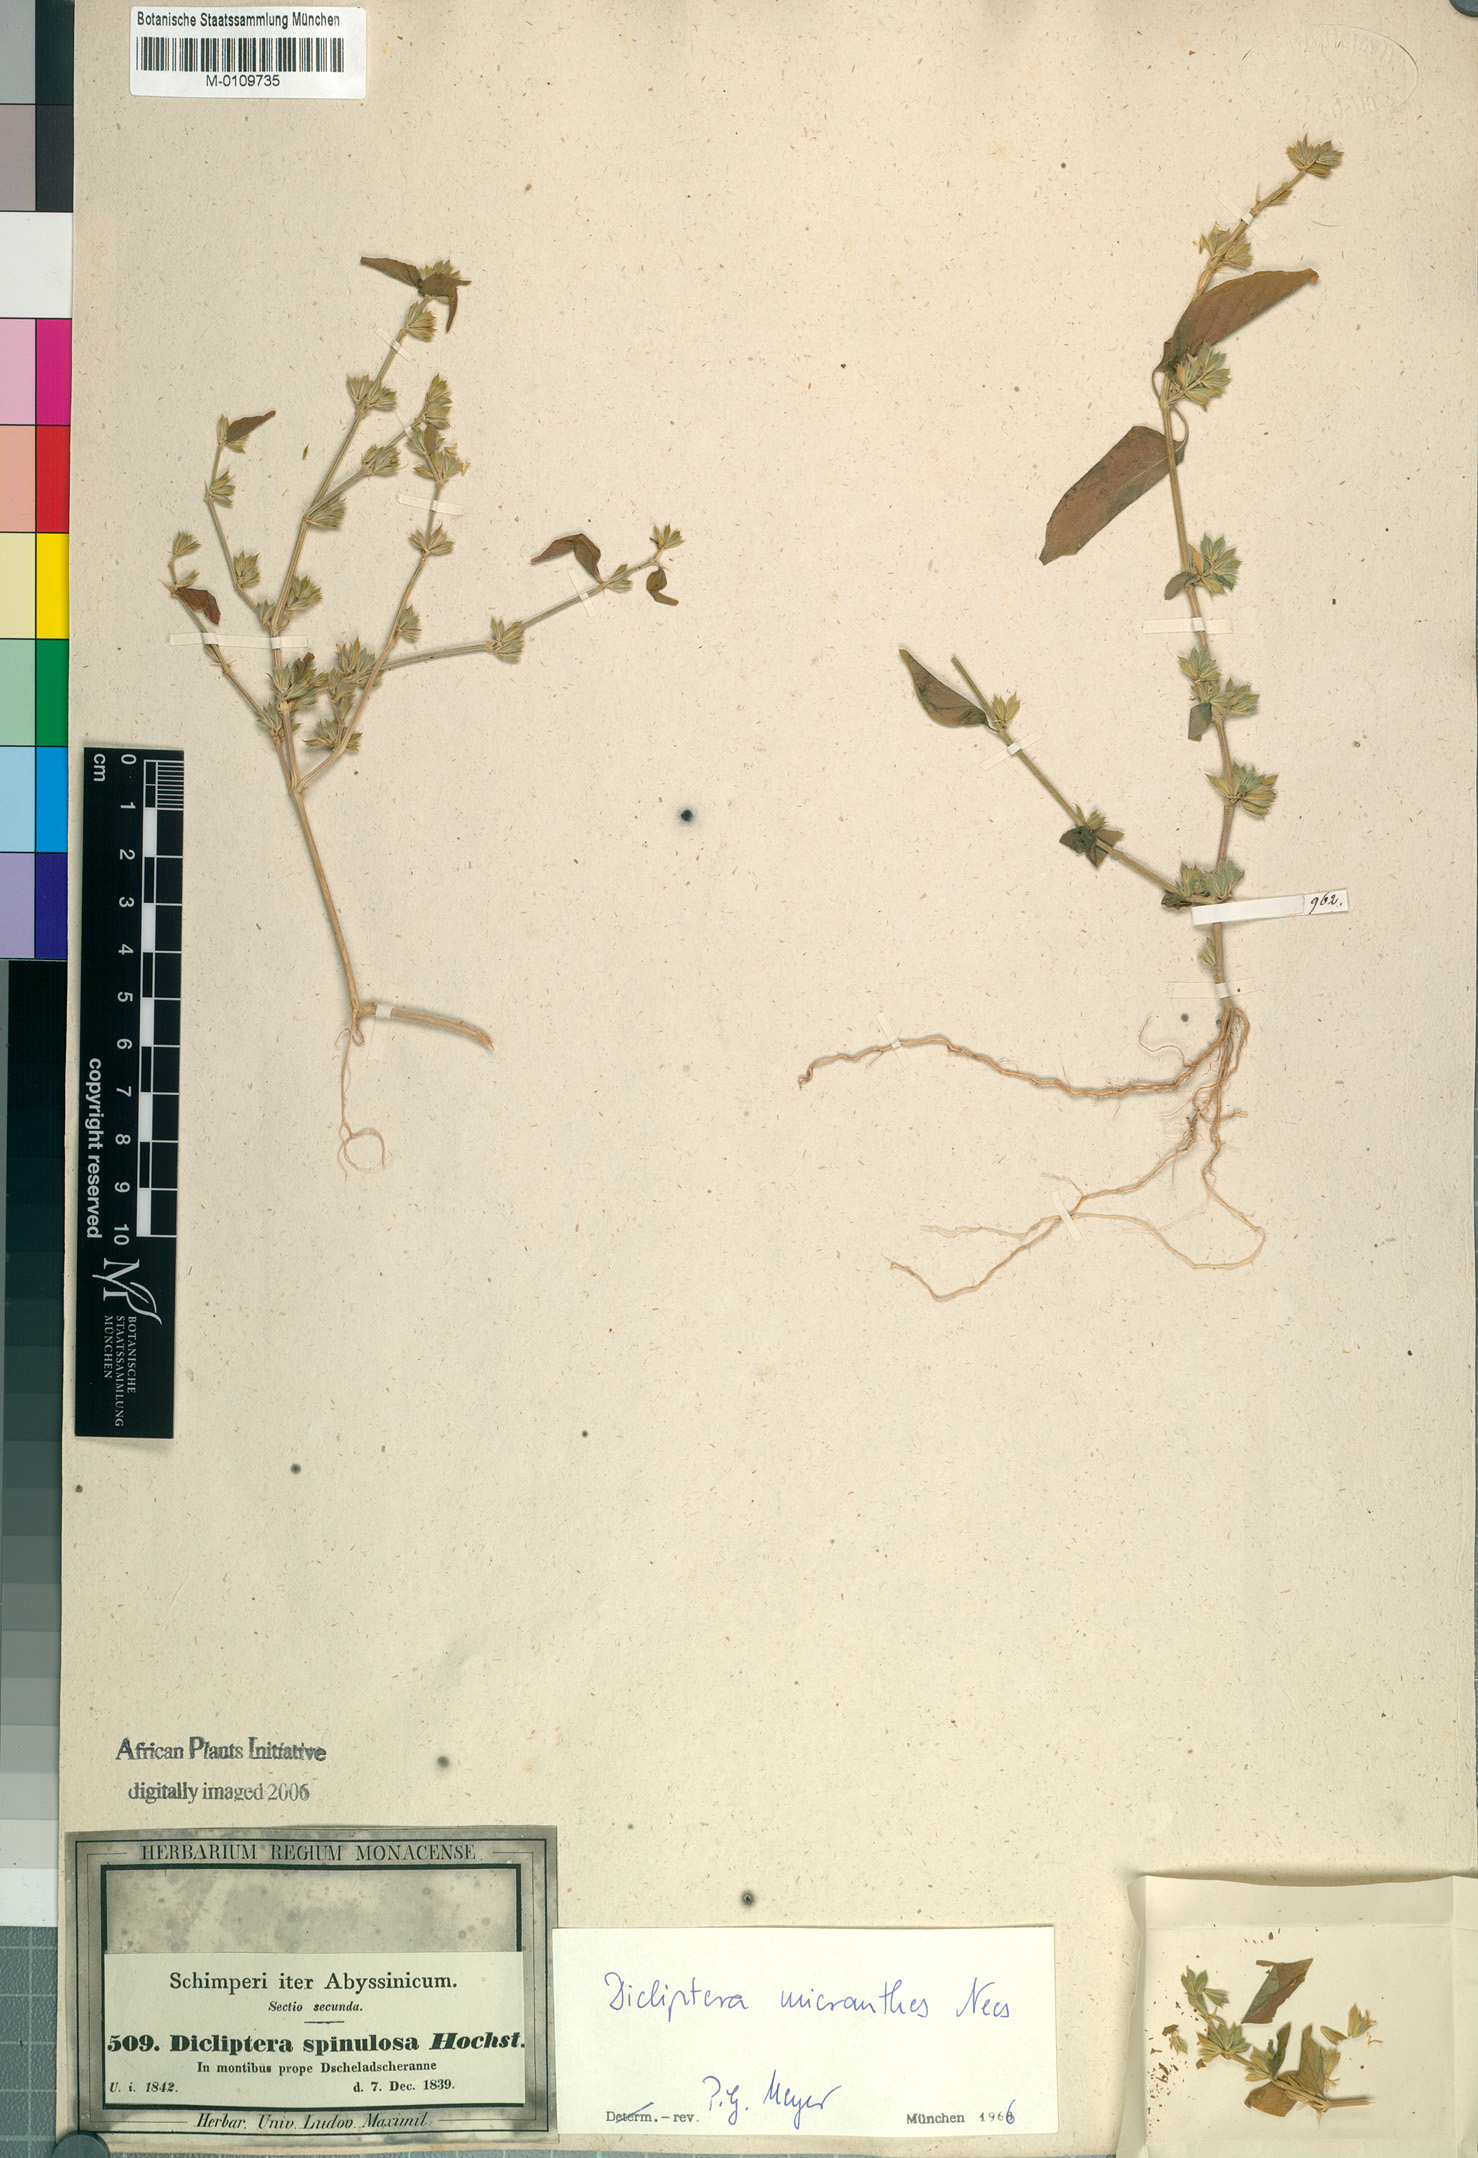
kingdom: Plantae
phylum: Tracheophyta
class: Magnoliopsida
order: Lamiales
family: Acanthaceae
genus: Dicliptera
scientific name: Dicliptera verticillata
